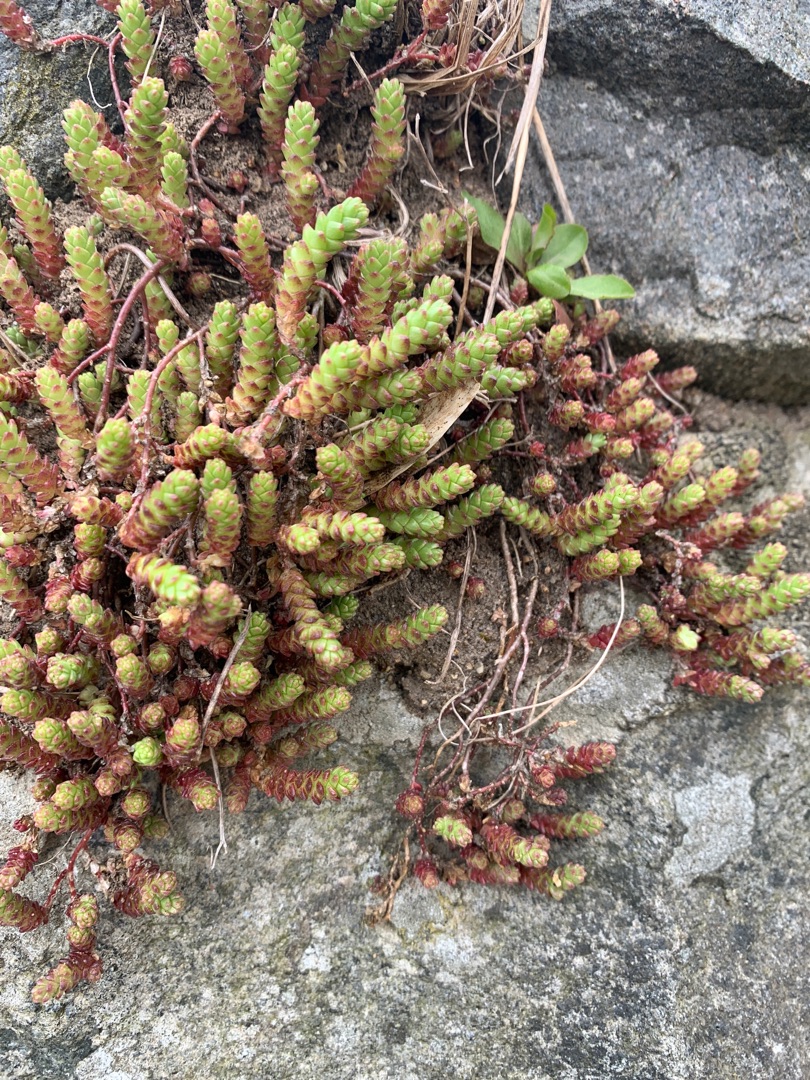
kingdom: Plantae
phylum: Tracheophyta
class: Magnoliopsida
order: Saxifragales
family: Crassulaceae
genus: Sedum
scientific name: Sedum acre
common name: Bidende stenurt
